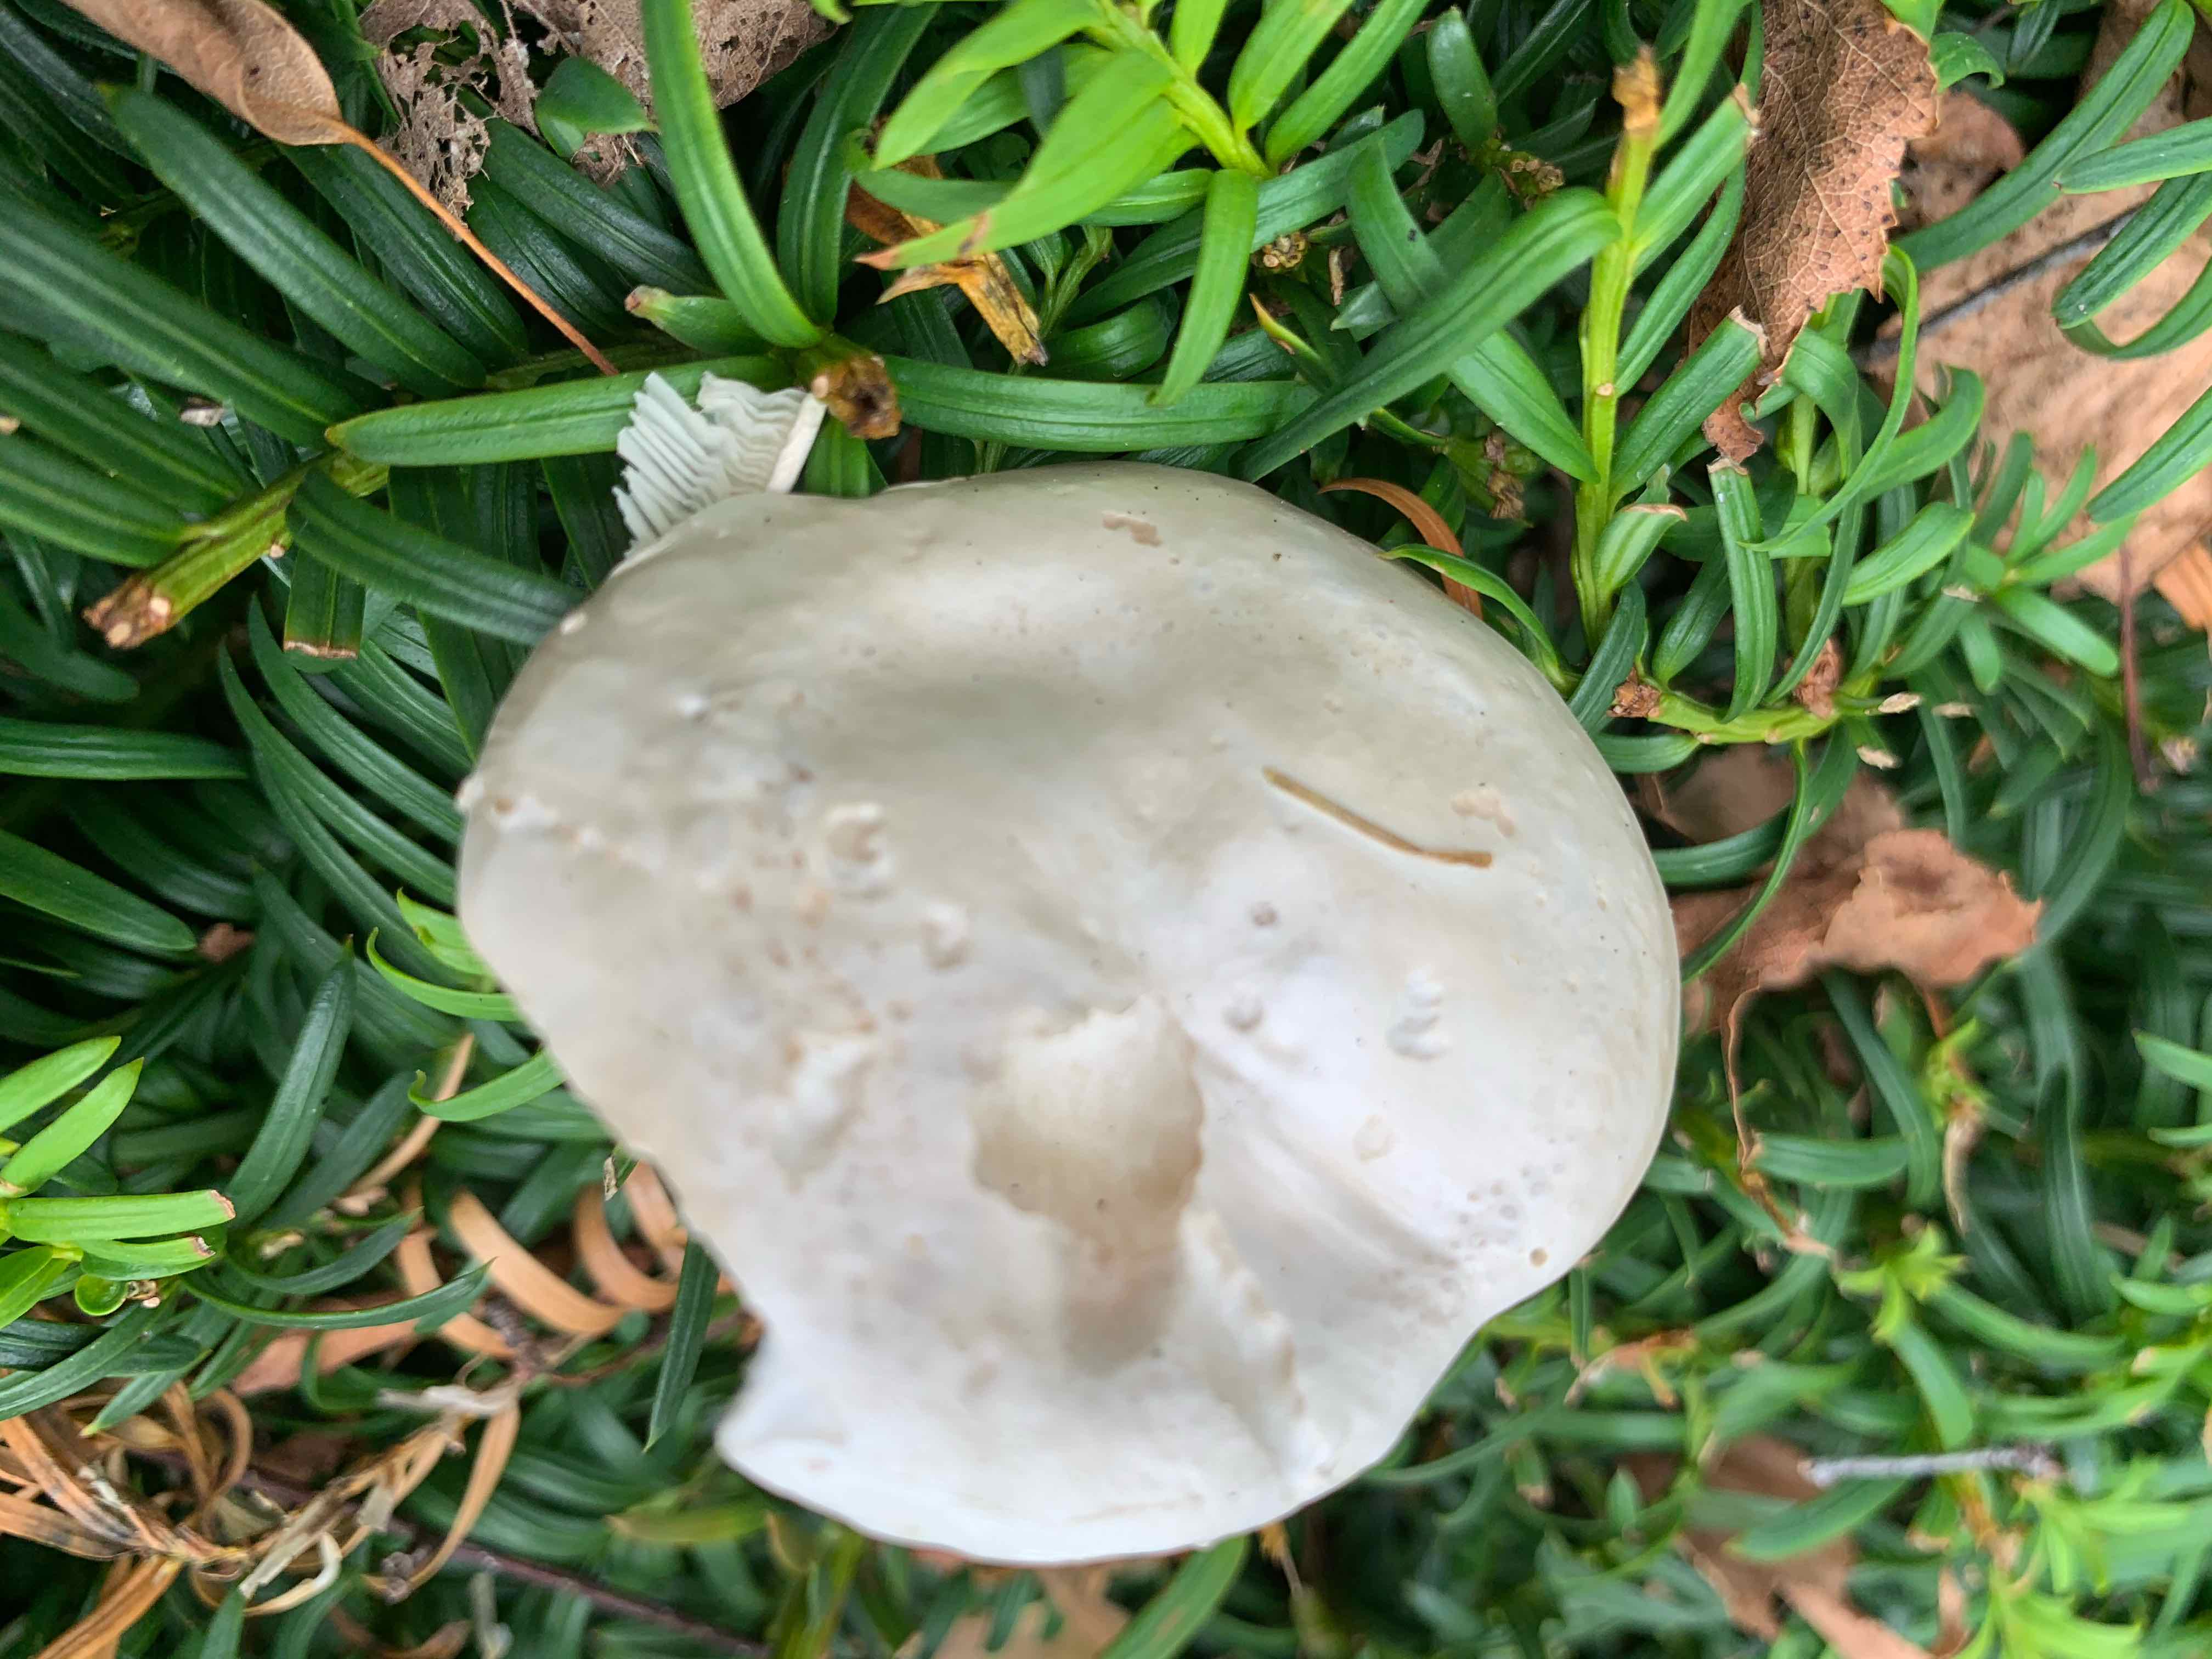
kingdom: Fungi
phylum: Basidiomycota
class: Agaricomycetes
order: Agaricales
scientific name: Agaricales
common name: champignonordenen
